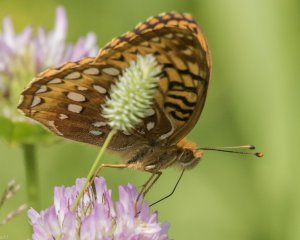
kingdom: Animalia
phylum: Arthropoda
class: Insecta
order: Lepidoptera
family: Nymphalidae
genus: Speyeria
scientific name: Speyeria cybele
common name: Great Spangled Fritillary
